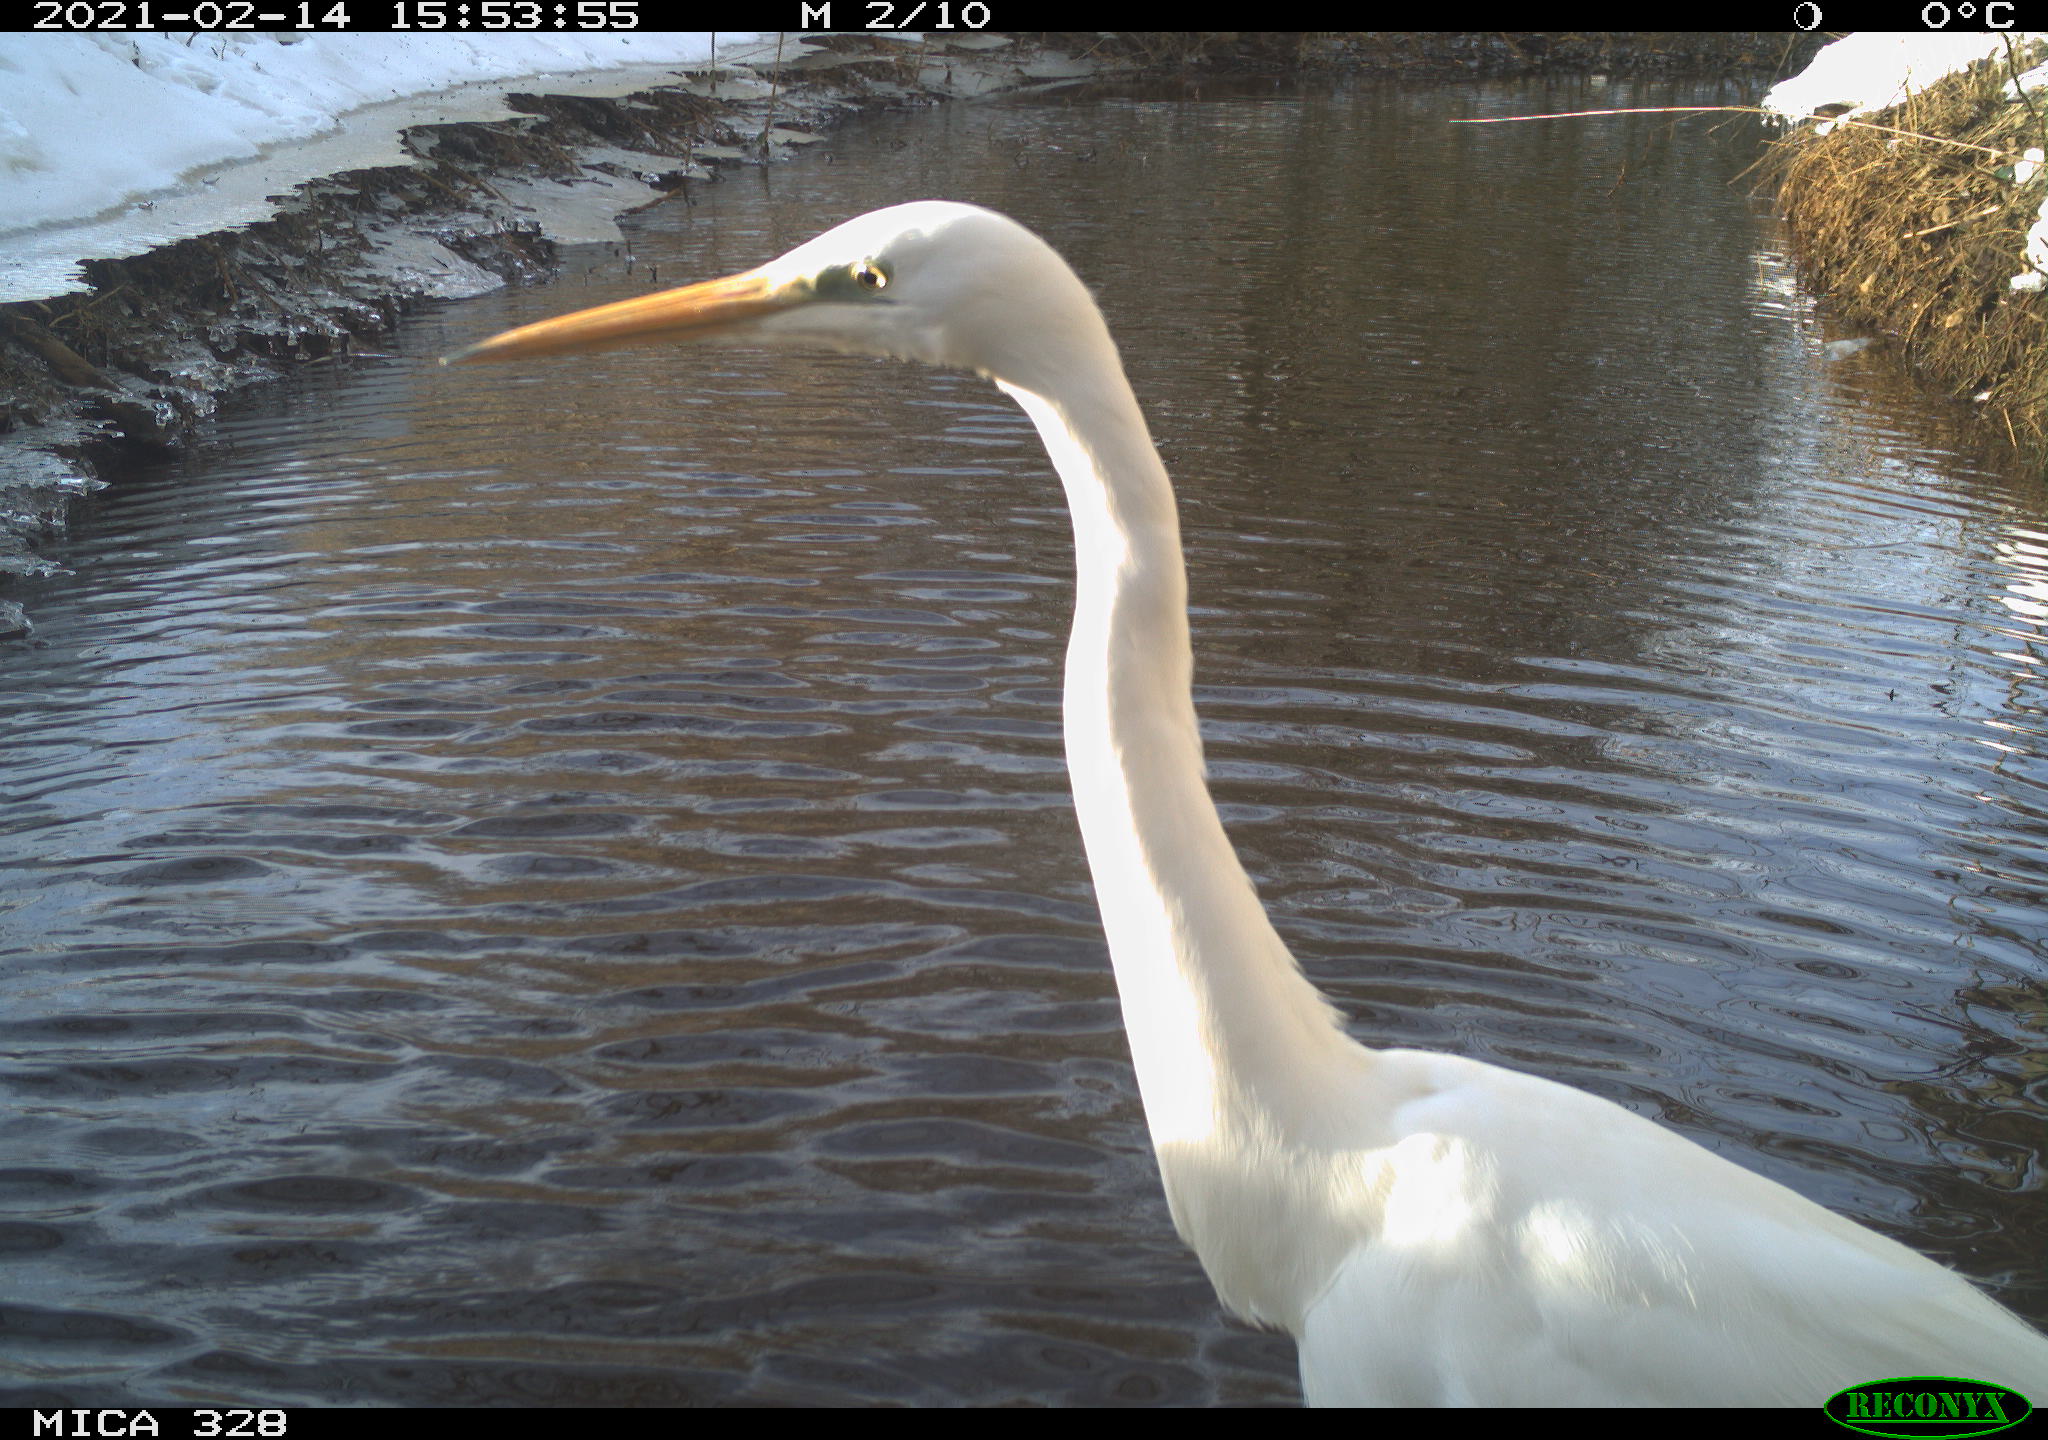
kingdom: Animalia
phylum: Chordata
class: Aves
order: Pelecaniformes
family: Ardeidae
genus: Ardea
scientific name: Ardea alba
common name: Great egret
